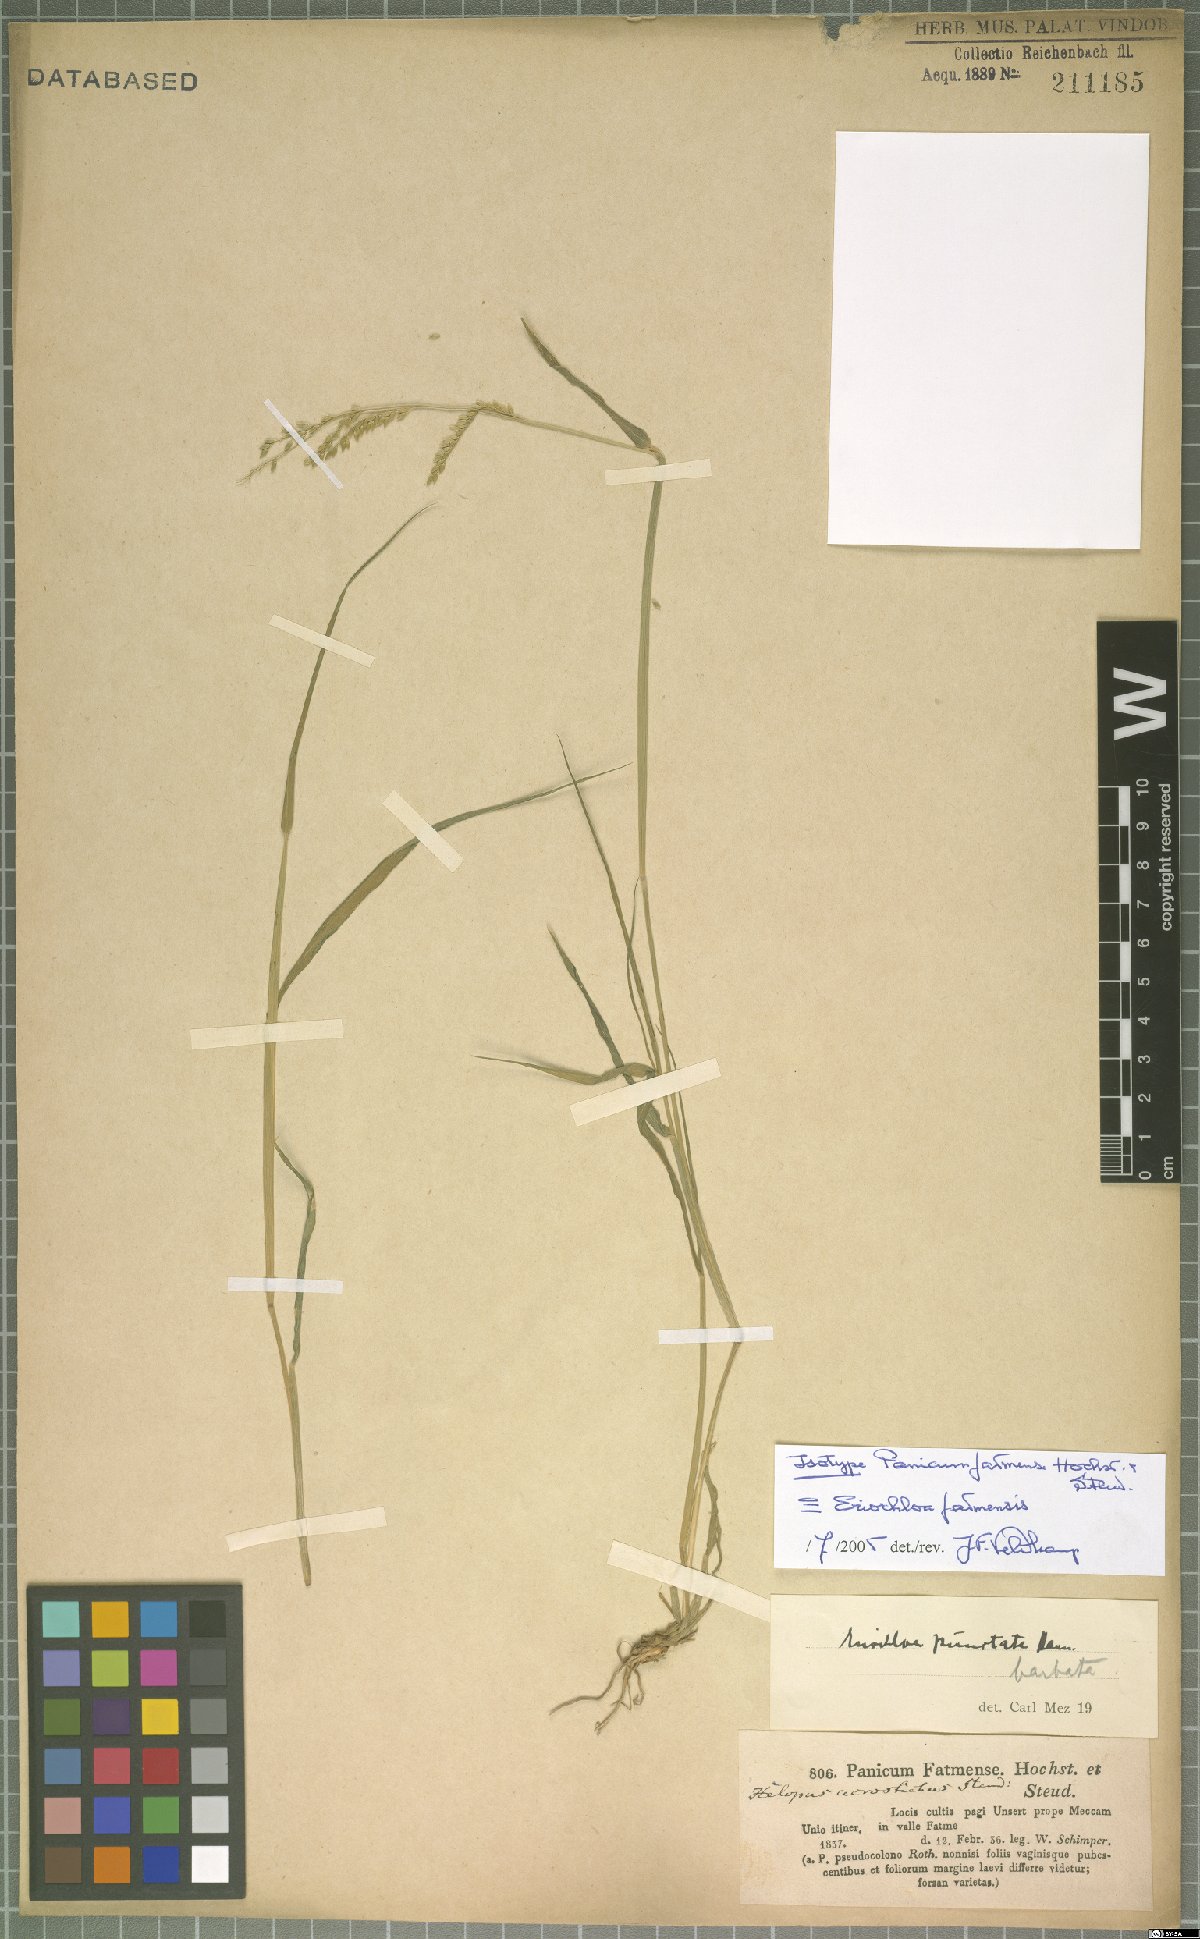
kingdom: Plantae
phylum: Tracheophyta
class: Liliopsida
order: Poales
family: Poaceae
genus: Eriochloa
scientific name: Eriochloa barbatus
